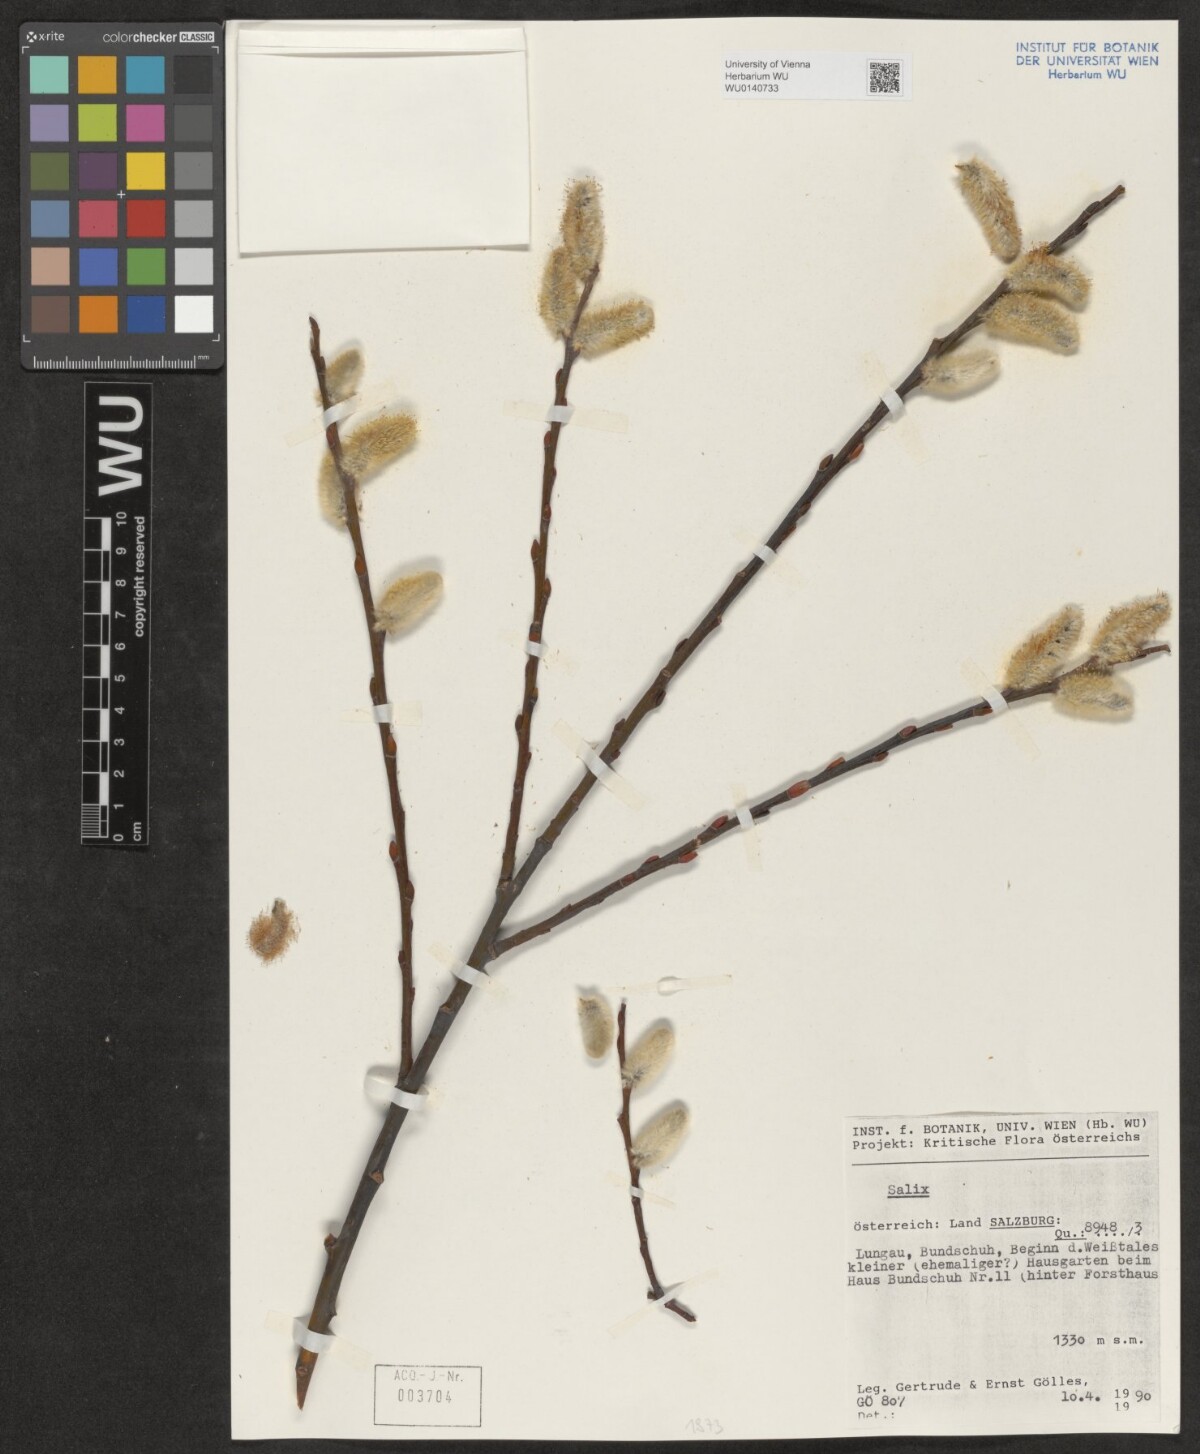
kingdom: Plantae
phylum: Tracheophyta
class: Magnoliopsida
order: Malpighiales
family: Salicaceae
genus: Salix
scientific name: Salix
